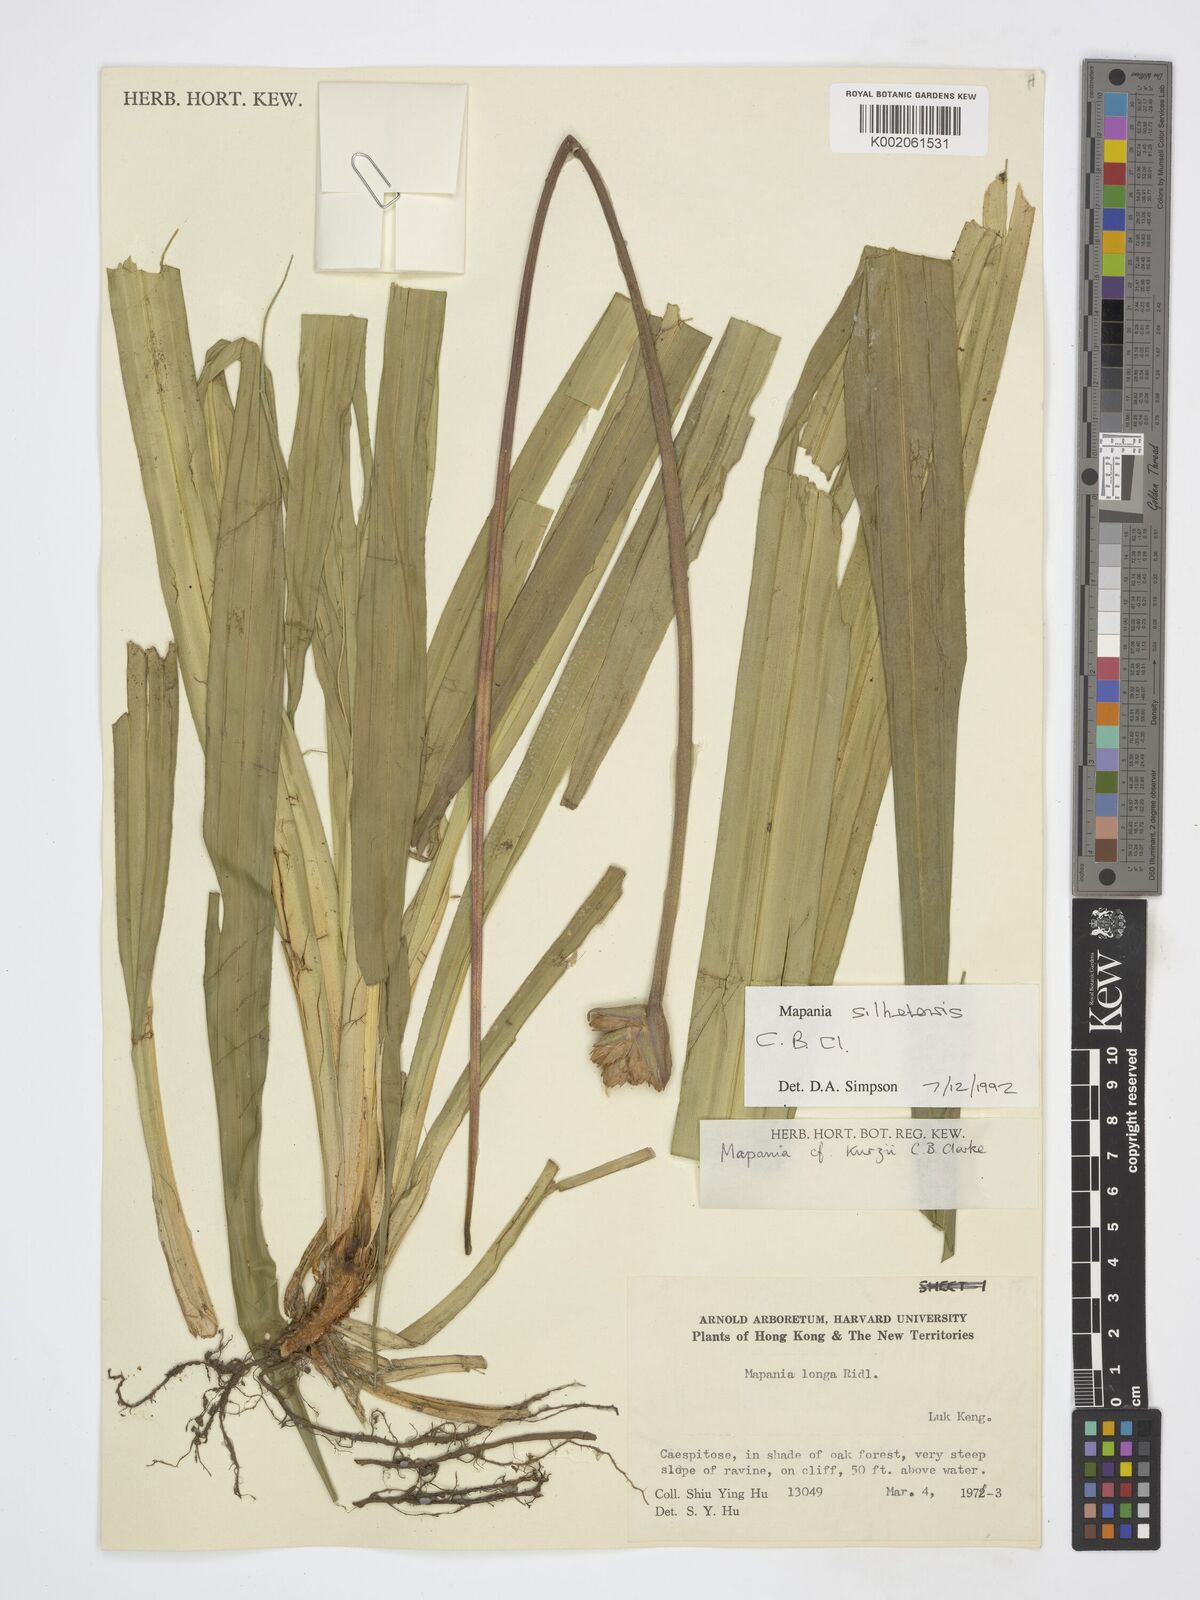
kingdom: Plantae
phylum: Tracheophyta
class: Liliopsida
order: Poales
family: Cyperaceae
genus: Mapania
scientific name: Mapania silhetensis
